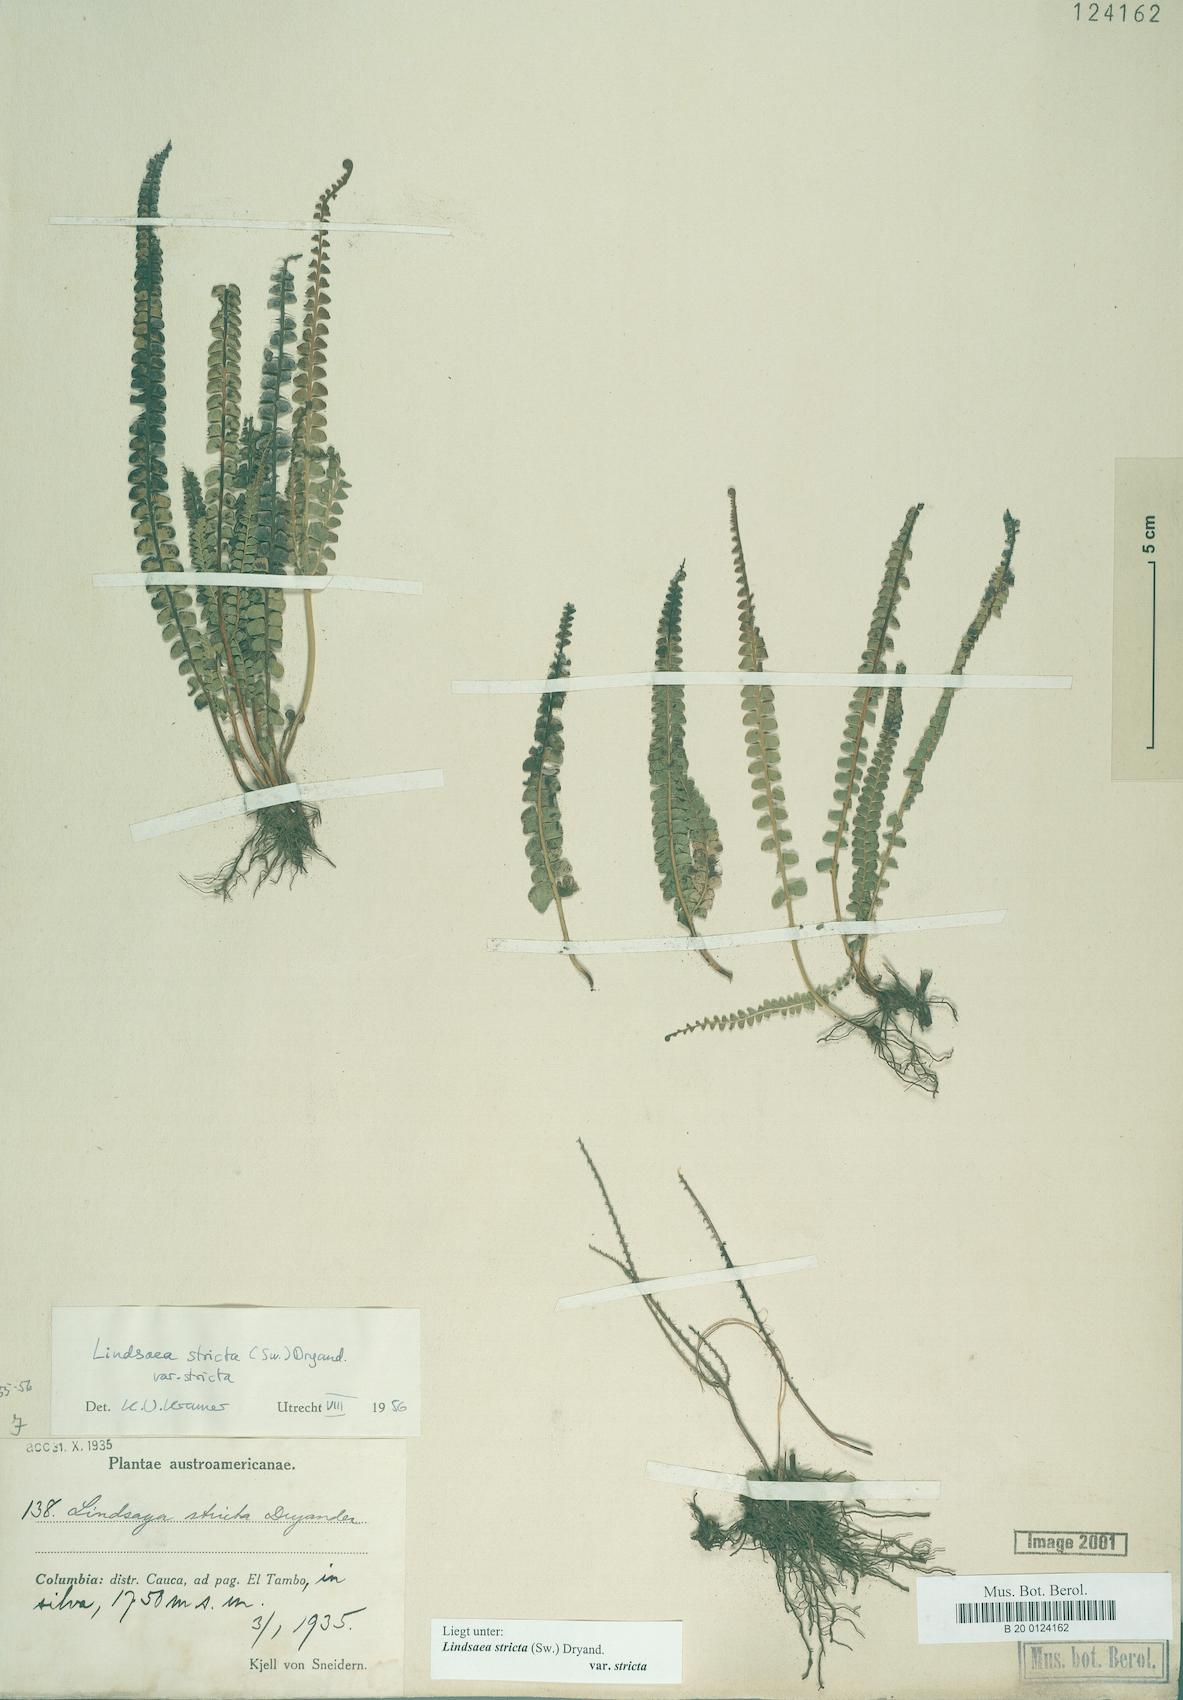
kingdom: Plantae
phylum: Tracheophyta
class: Polypodiopsida
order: Polypodiales
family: Lindsaeaceae
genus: Lindsaea
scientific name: Lindsaea stricta
